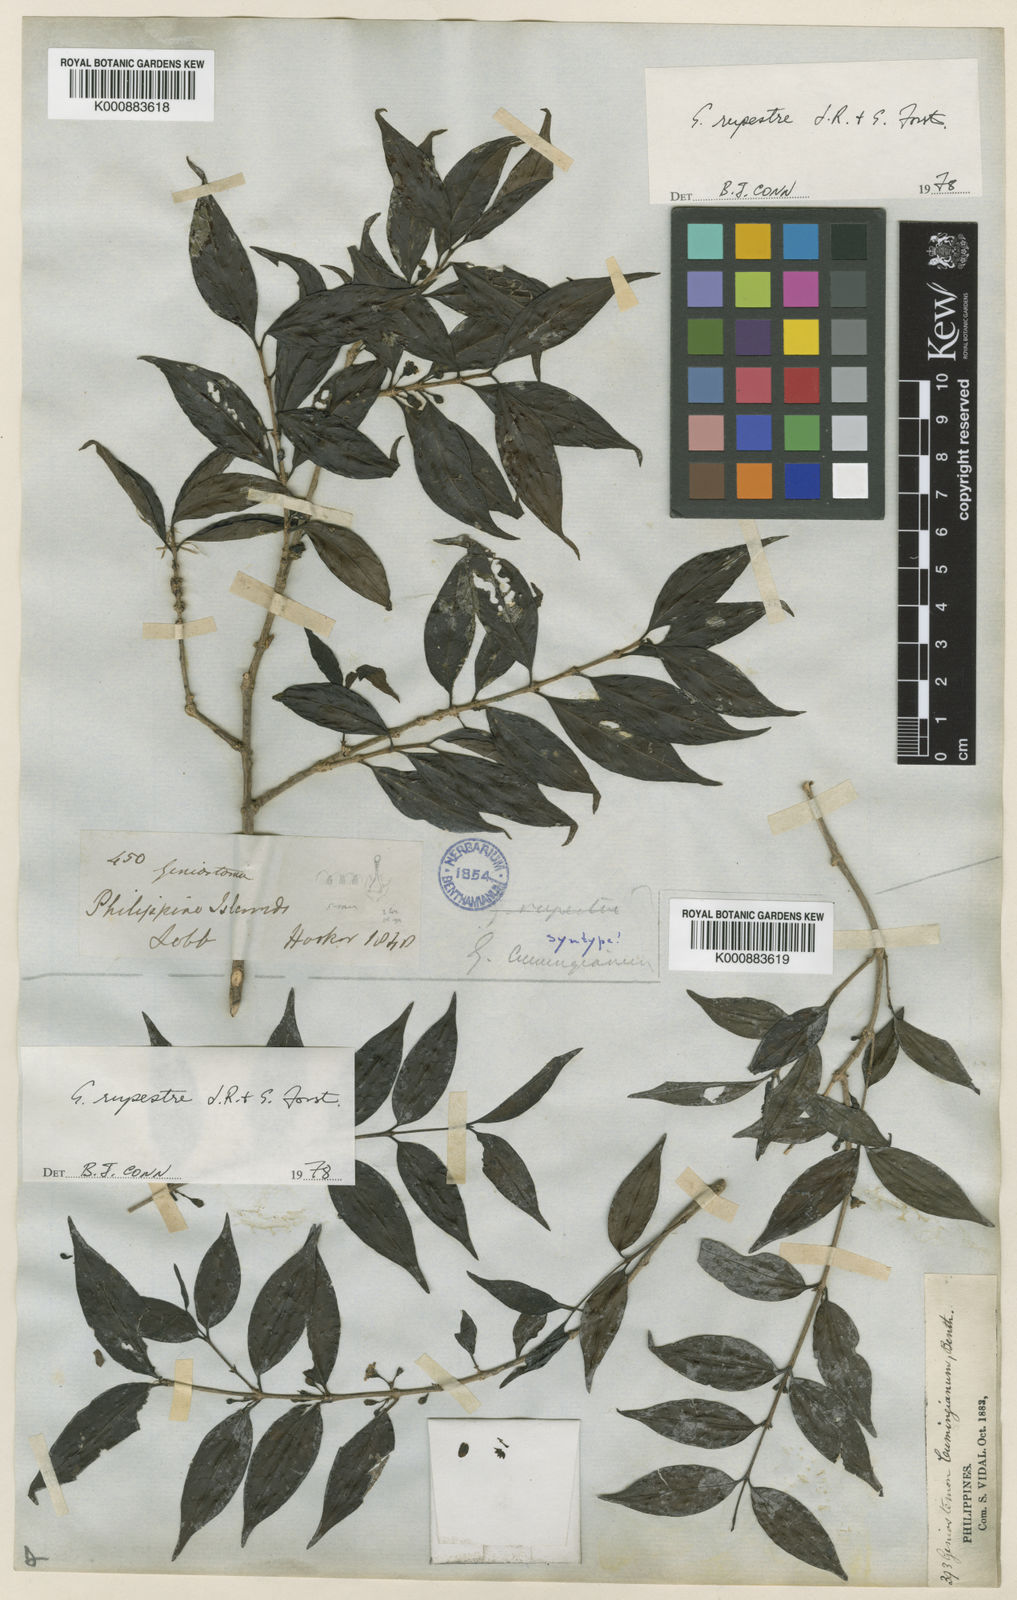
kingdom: Plantae
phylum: Tracheophyta
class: Magnoliopsida
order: Gentianales
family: Loganiaceae
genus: Geniostoma
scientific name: Geniostoma rupestre
